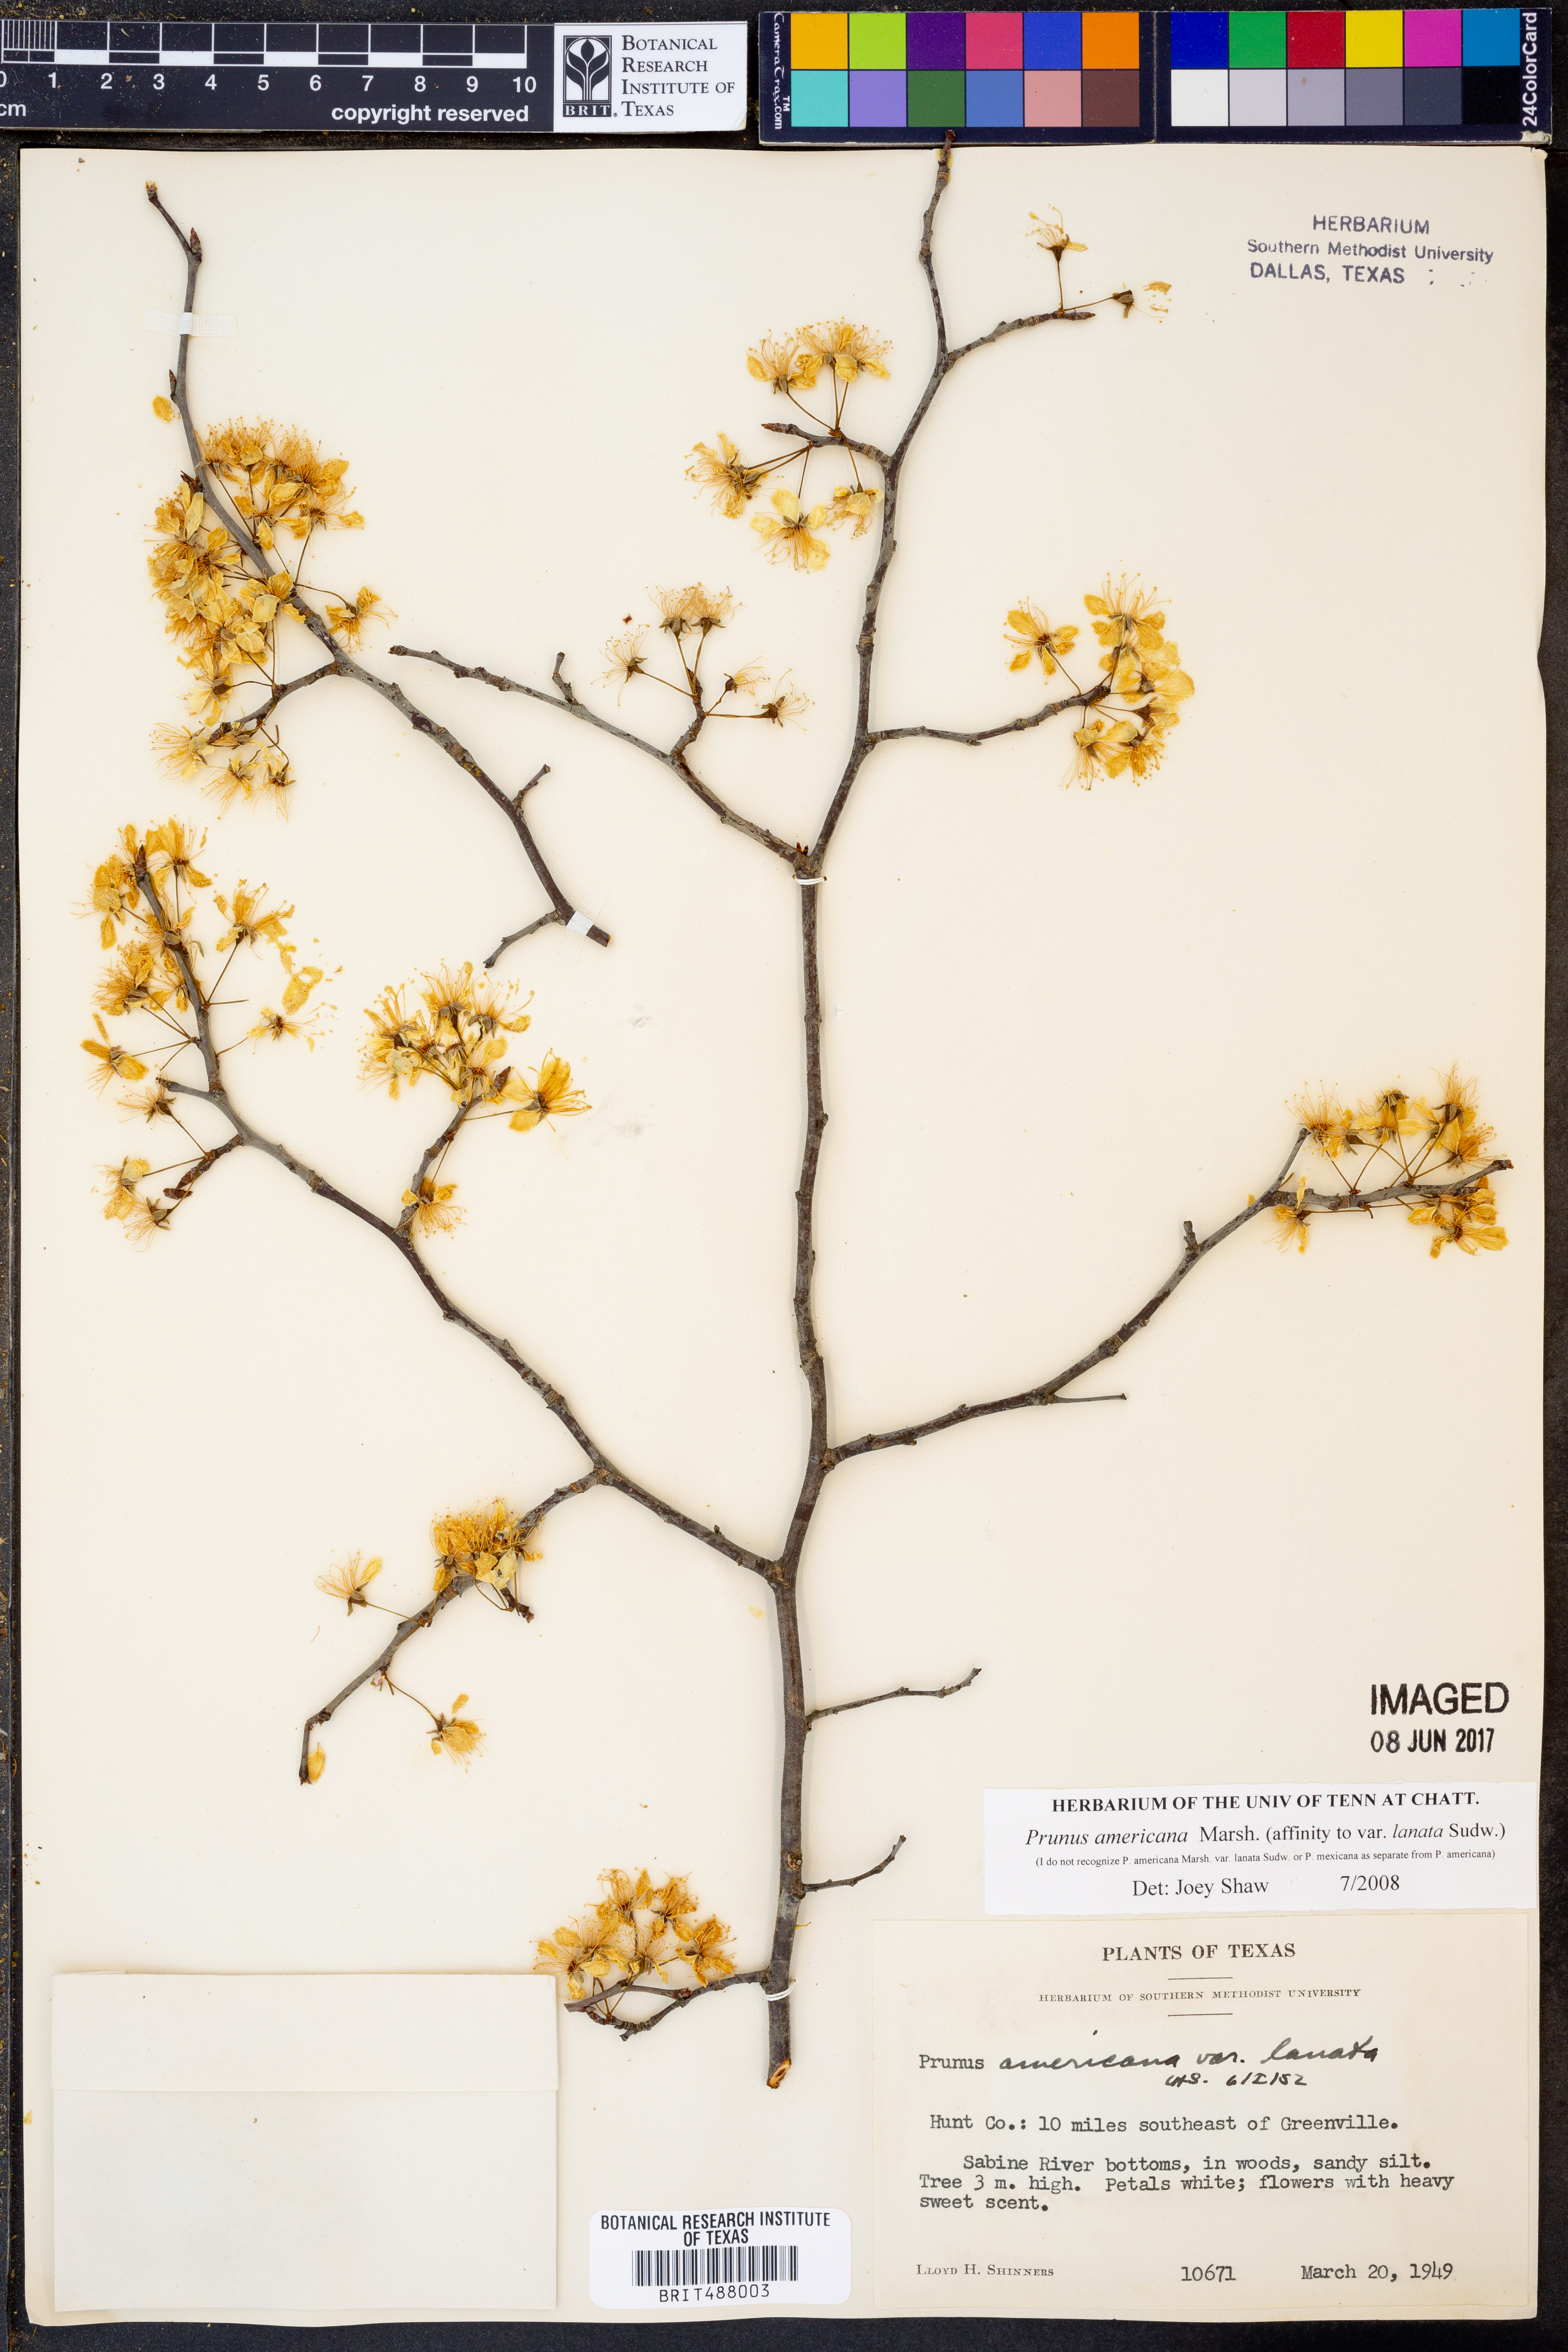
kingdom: Plantae
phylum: Tracheophyta
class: Magnoliopsida
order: Rosales
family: Rosaceae
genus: Prunus
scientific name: Prunus americana
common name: American plum
